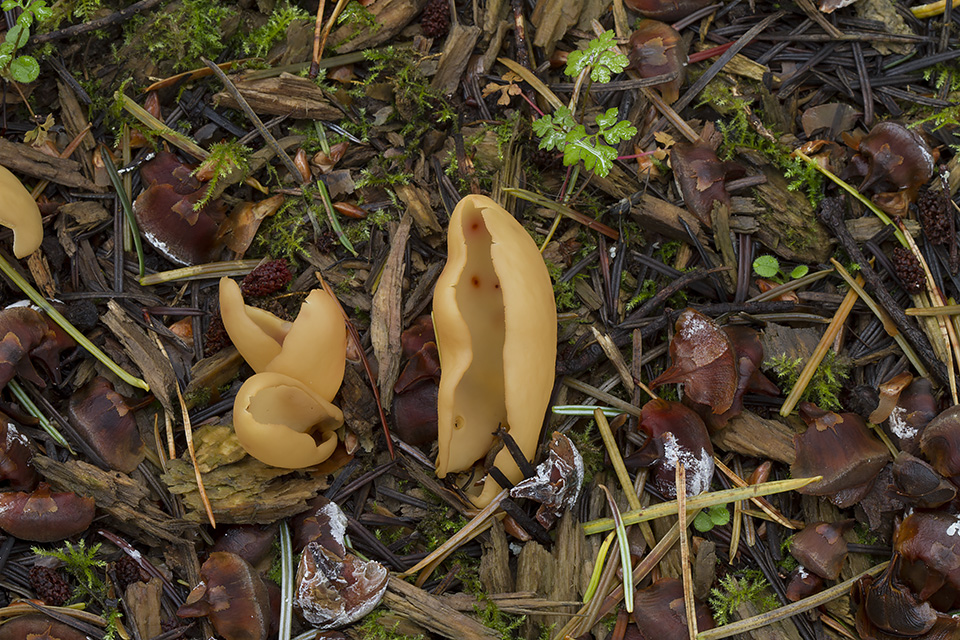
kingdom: Fungi
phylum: Ascomycota
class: Pezizomycetes
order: Pezizales
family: Otideaceae
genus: Otidea
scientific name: Otidea onotica
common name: æsel-ørebæger
